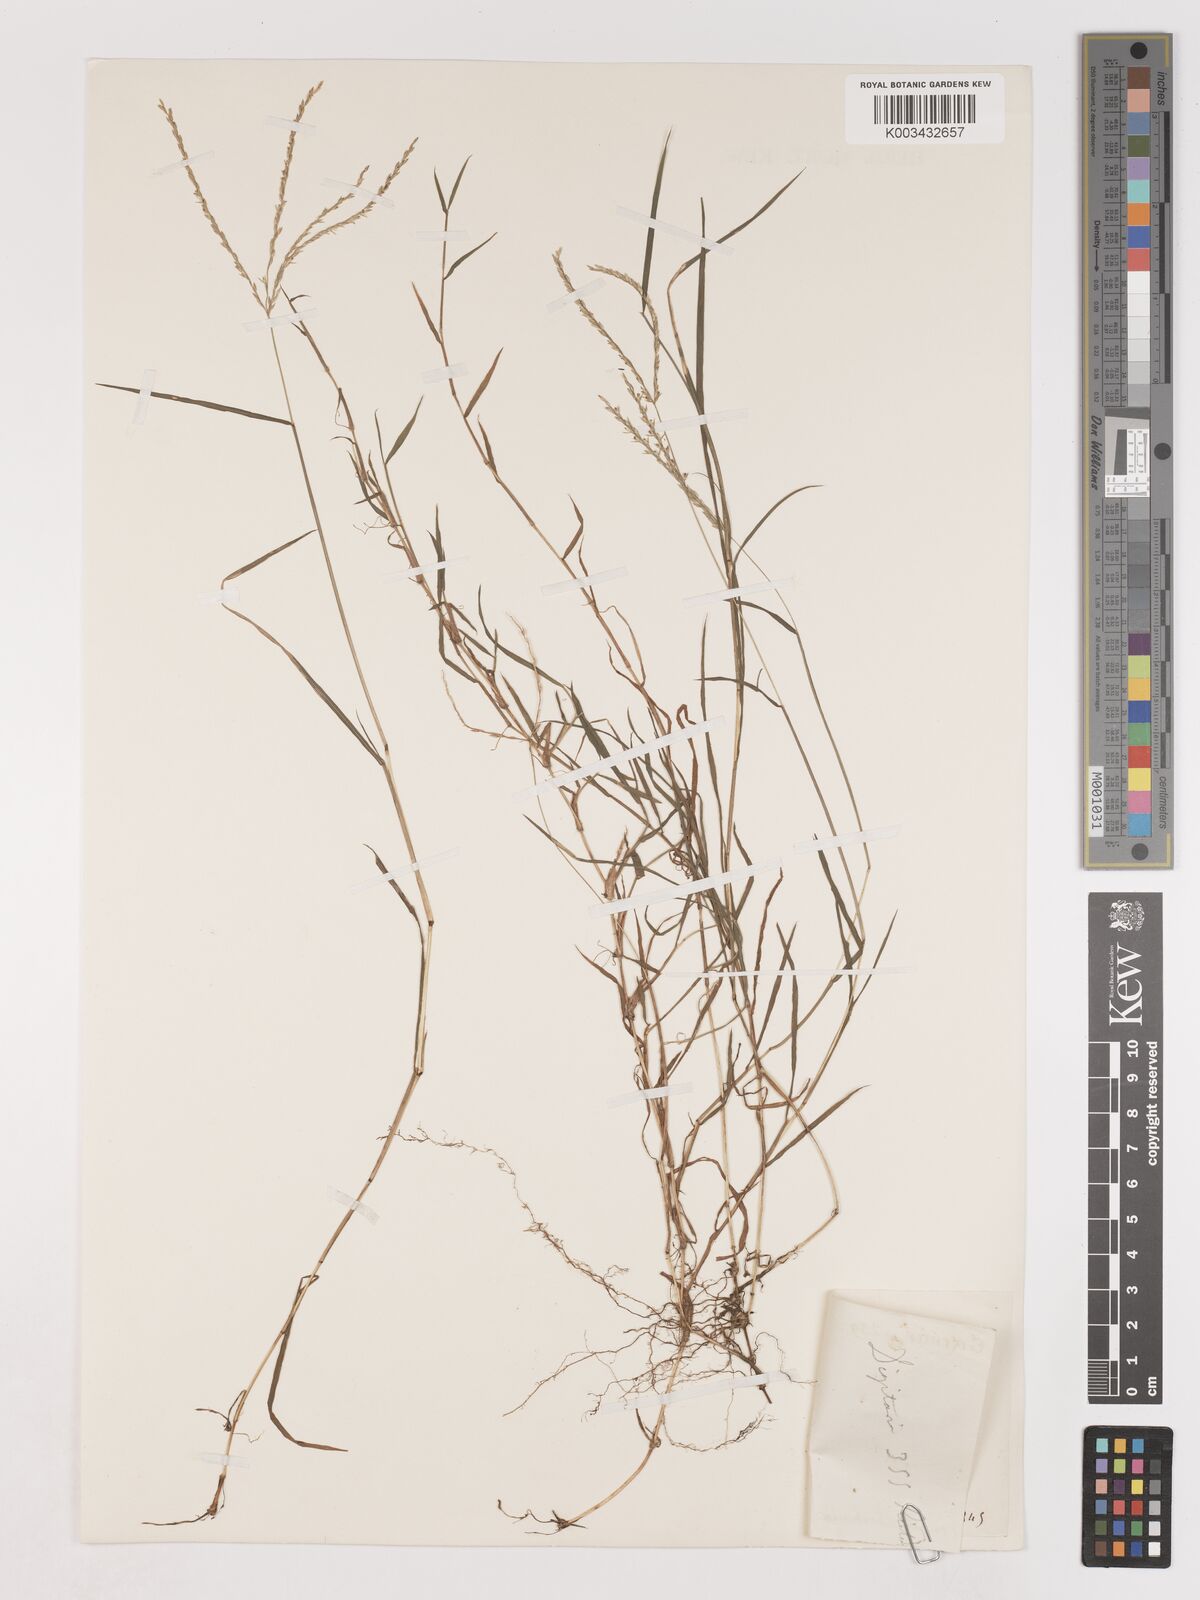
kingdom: Plantae
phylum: Tracheophyta
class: Liliopsida
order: Poales
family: Poaceae
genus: Digitaria
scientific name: Digitaria didactyla
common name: Blue couch
